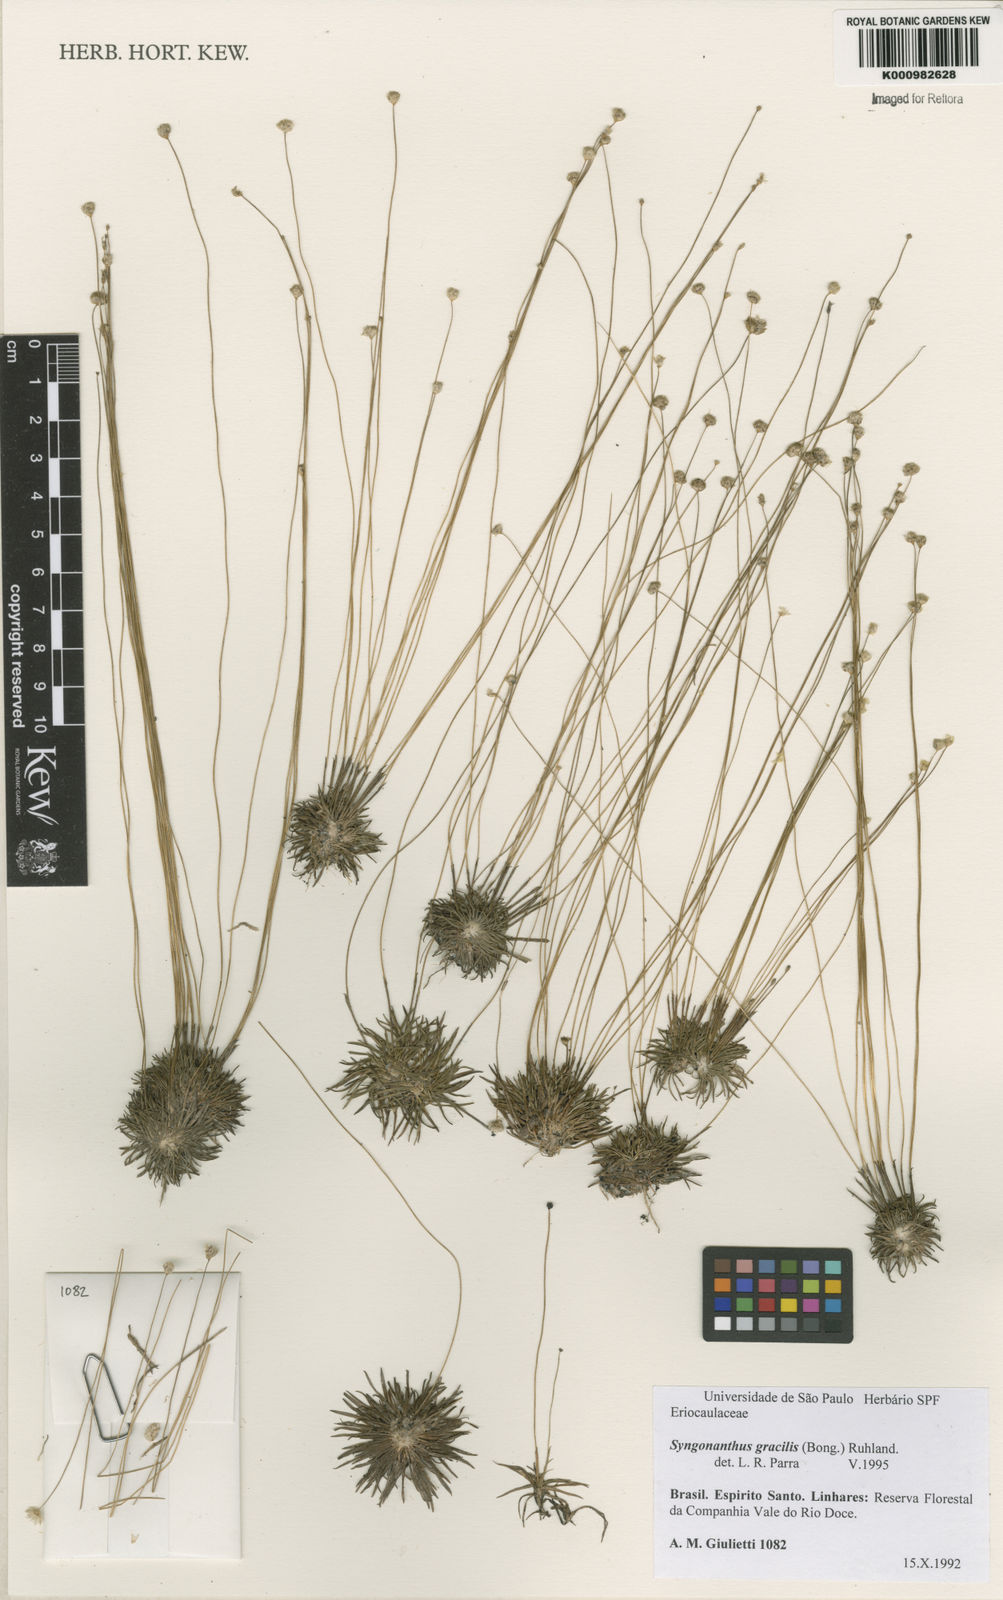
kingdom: Plantae
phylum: Tracheophyta
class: Liliopsida
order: Poales
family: Eriocaulaceae
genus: Syngonanthus
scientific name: Syngonanthus gracilis
